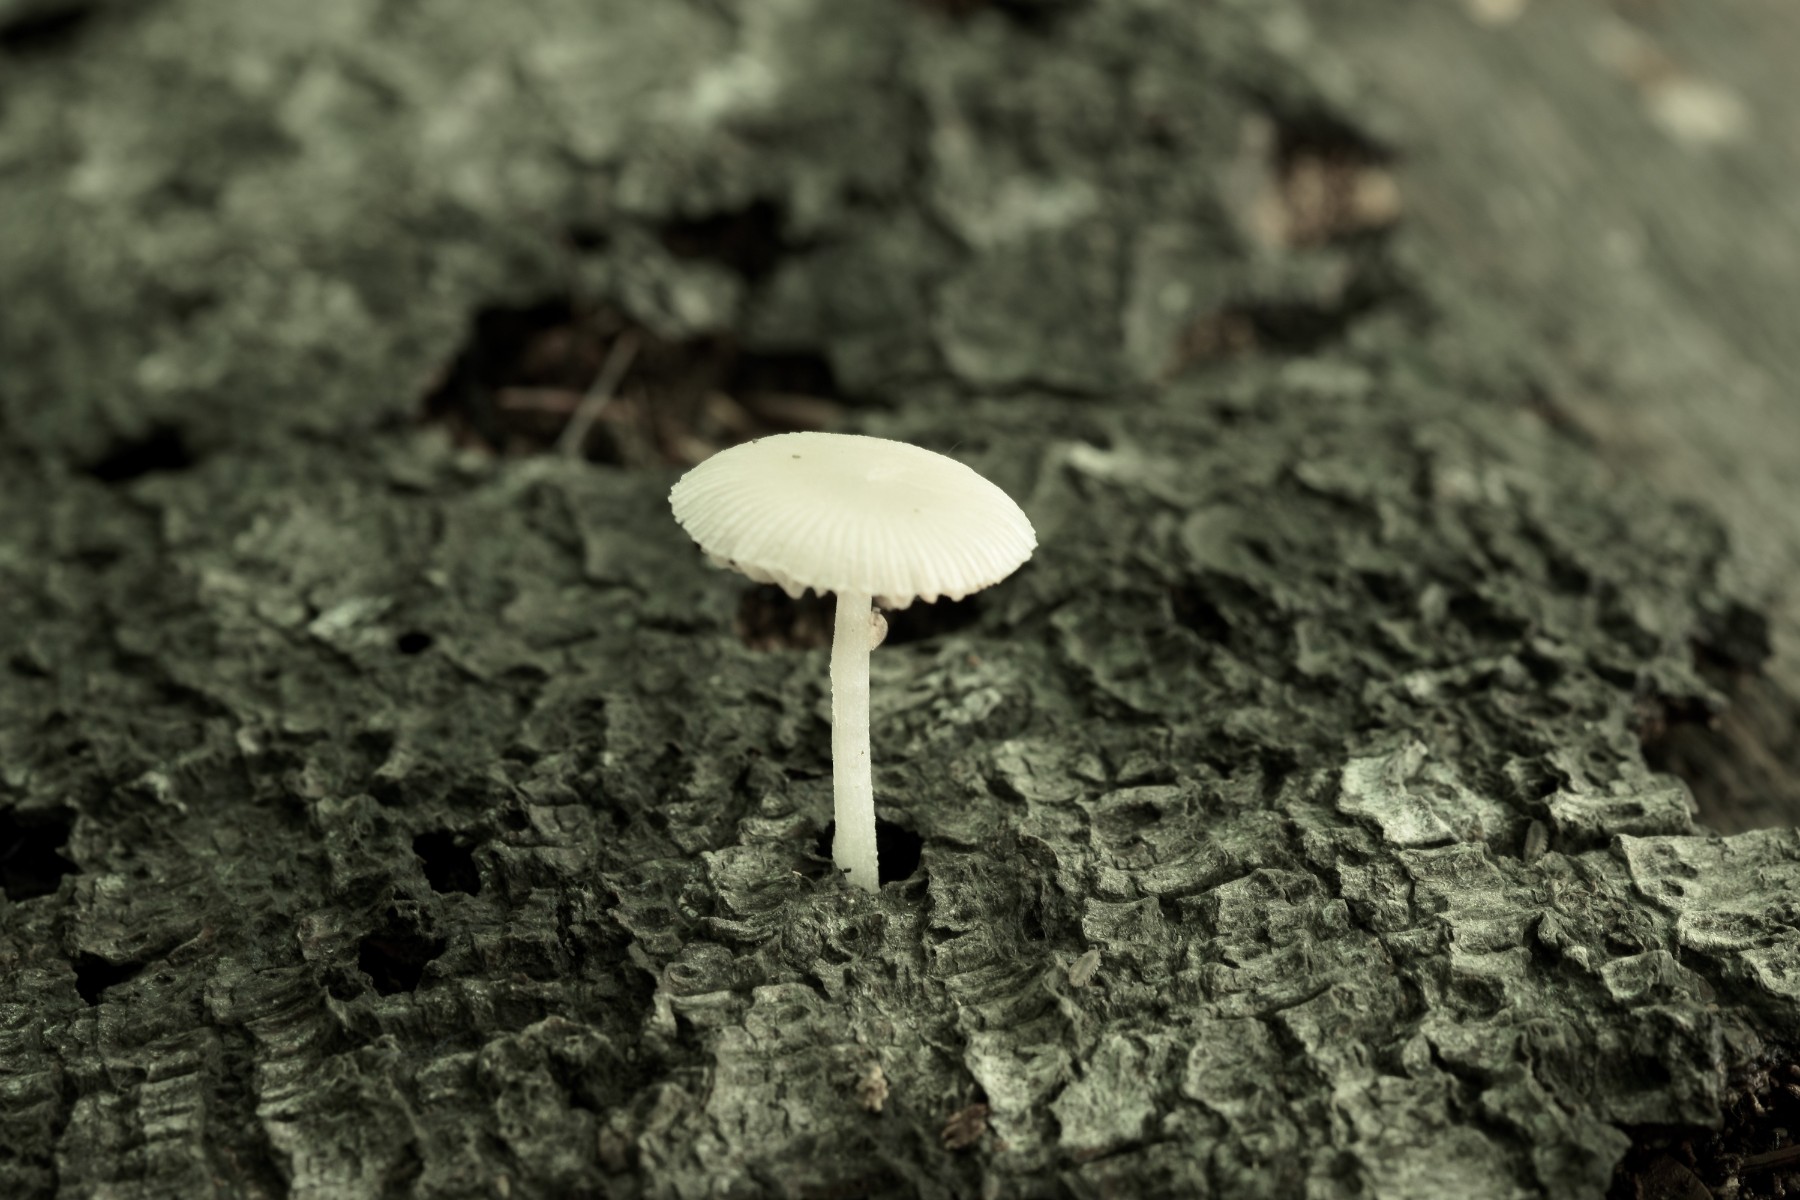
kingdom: Fungi
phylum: Basidiomycota
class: Agaricomycetes
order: Agaricales
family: Pluteaceae
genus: Pluteus
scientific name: Pluteus semibulbosus
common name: knoldet skærmhat
